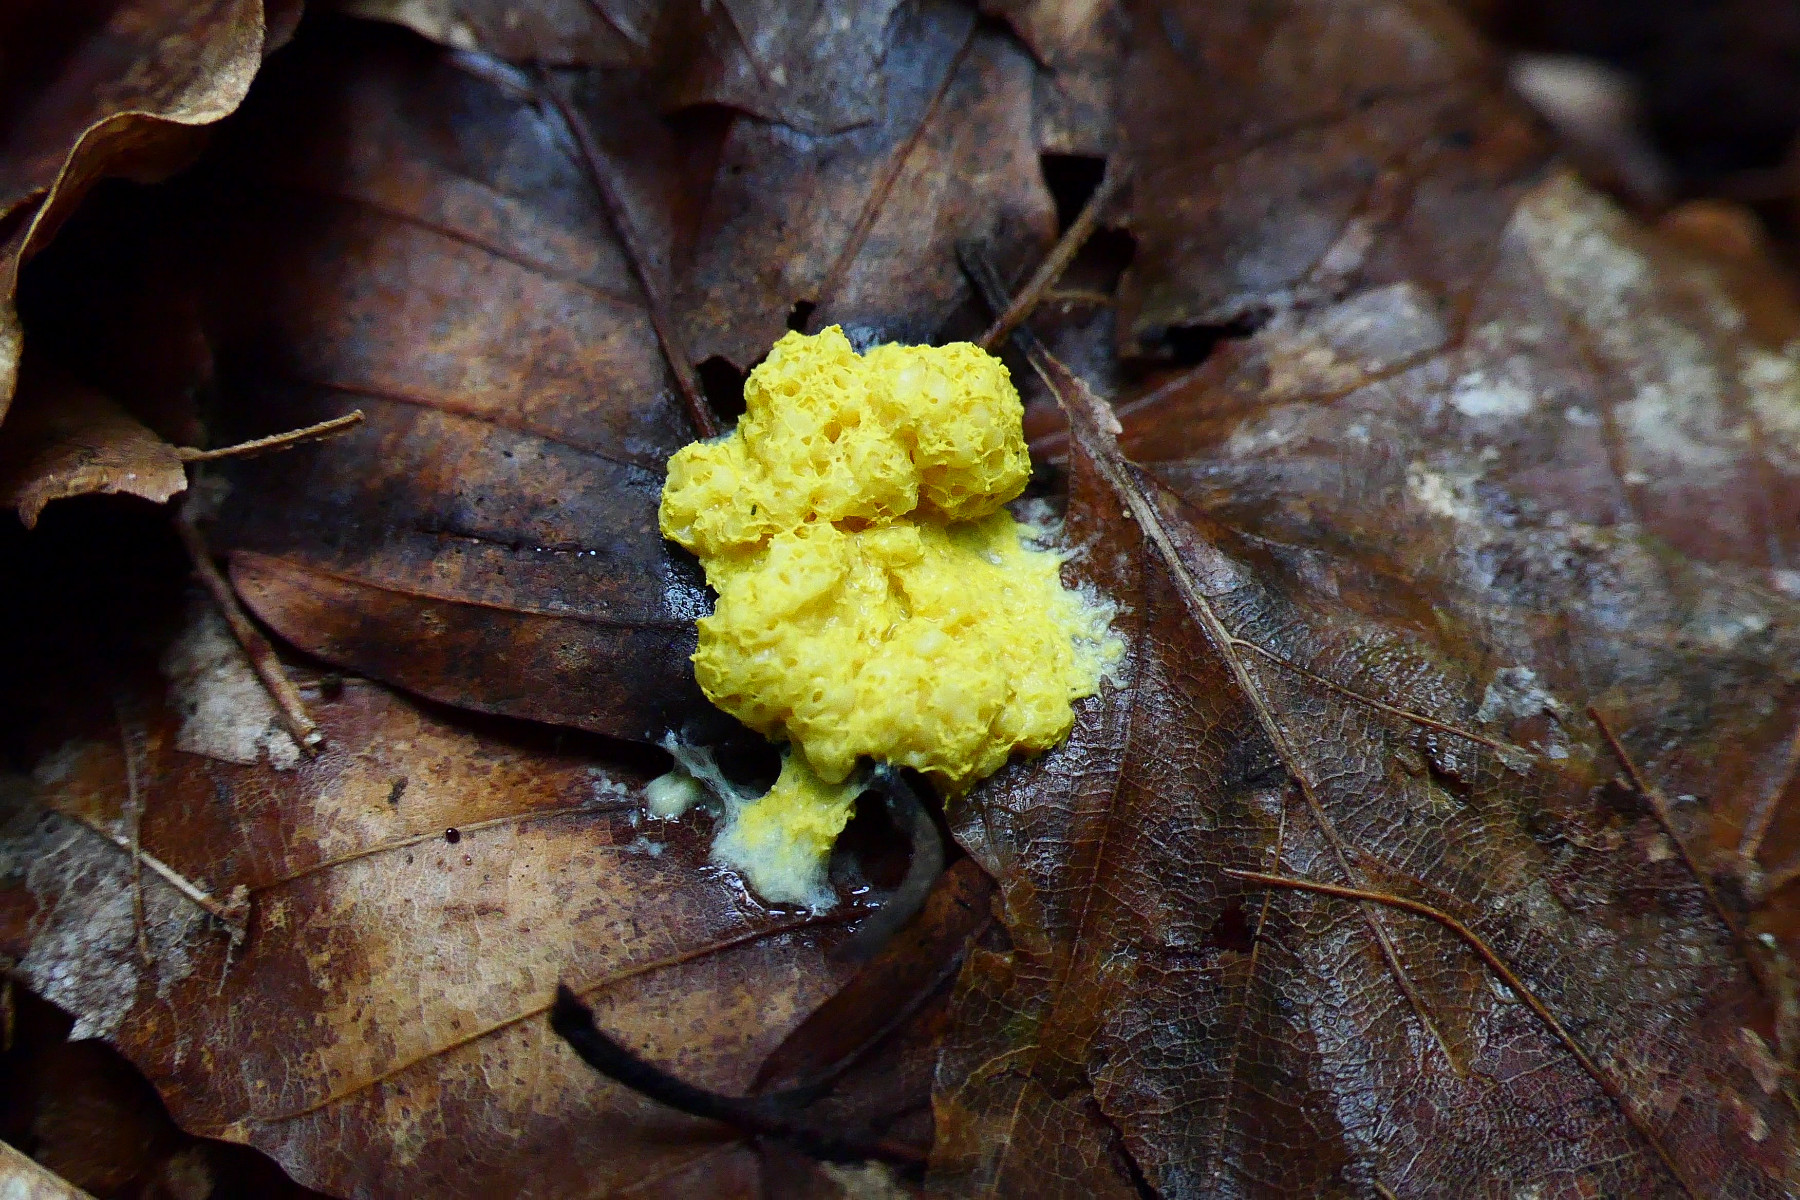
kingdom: Protozoa
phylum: Mycetozoa
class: Myxomycetes
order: Physarales
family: Physaraceae
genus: Fuligo
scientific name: Fuligo septica
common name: gul troldsmør
